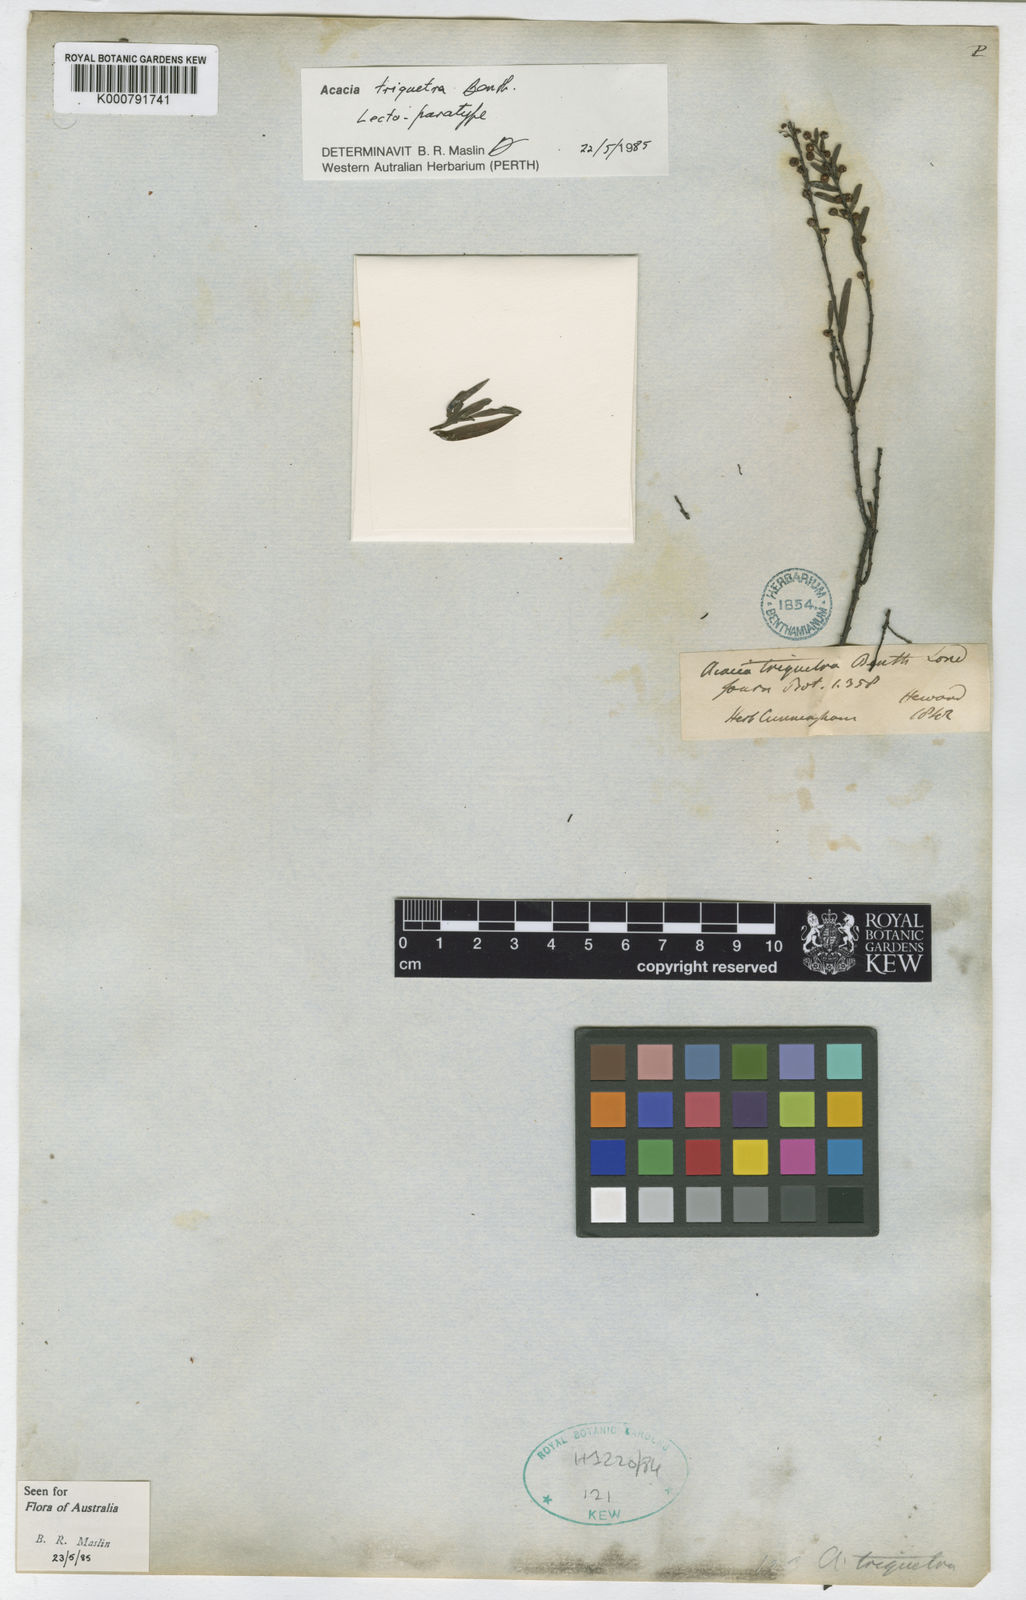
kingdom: Plantae
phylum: Tracheophyta
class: Magnoliopsida
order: Fabales
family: Fabaceae
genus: Acacia
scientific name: Acacia triquetra
